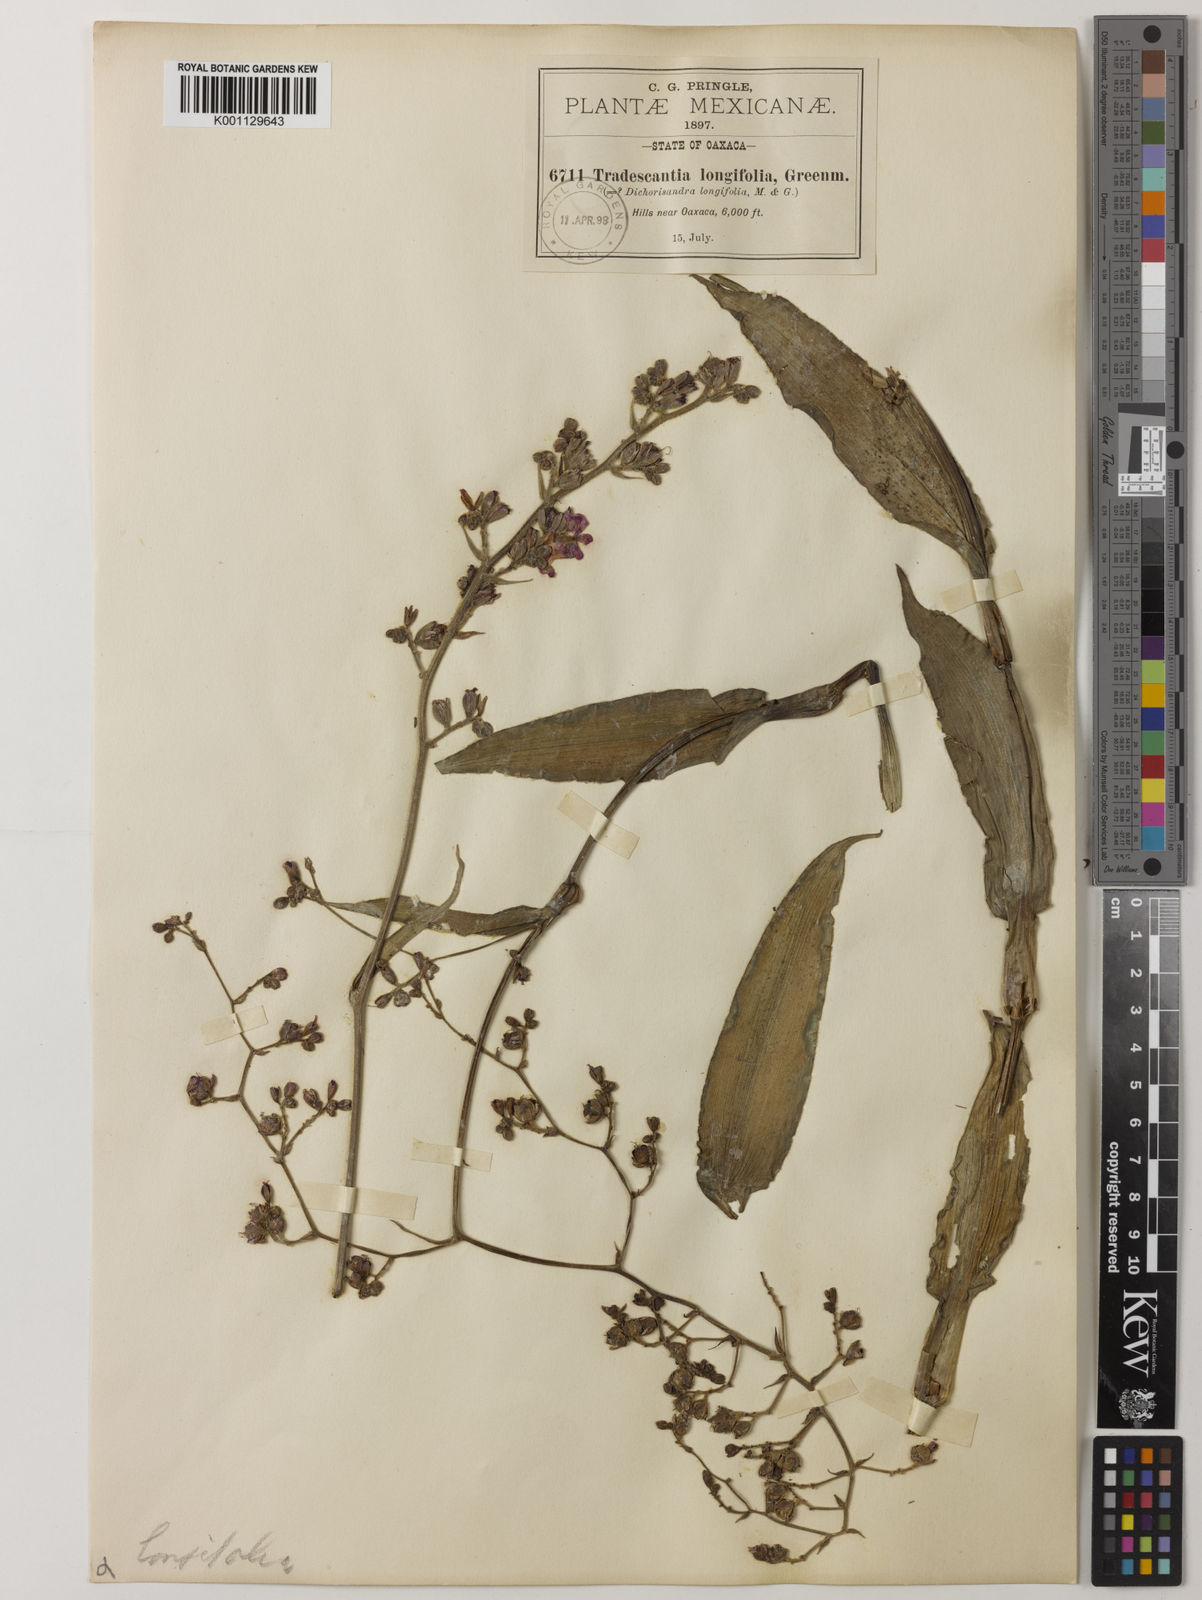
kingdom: Plantae
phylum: Tracheophyta
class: Liliopsida
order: Commelinales
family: Commelinaceae
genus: Thyrsanthemum
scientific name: Thyrsanthemum floribundum
